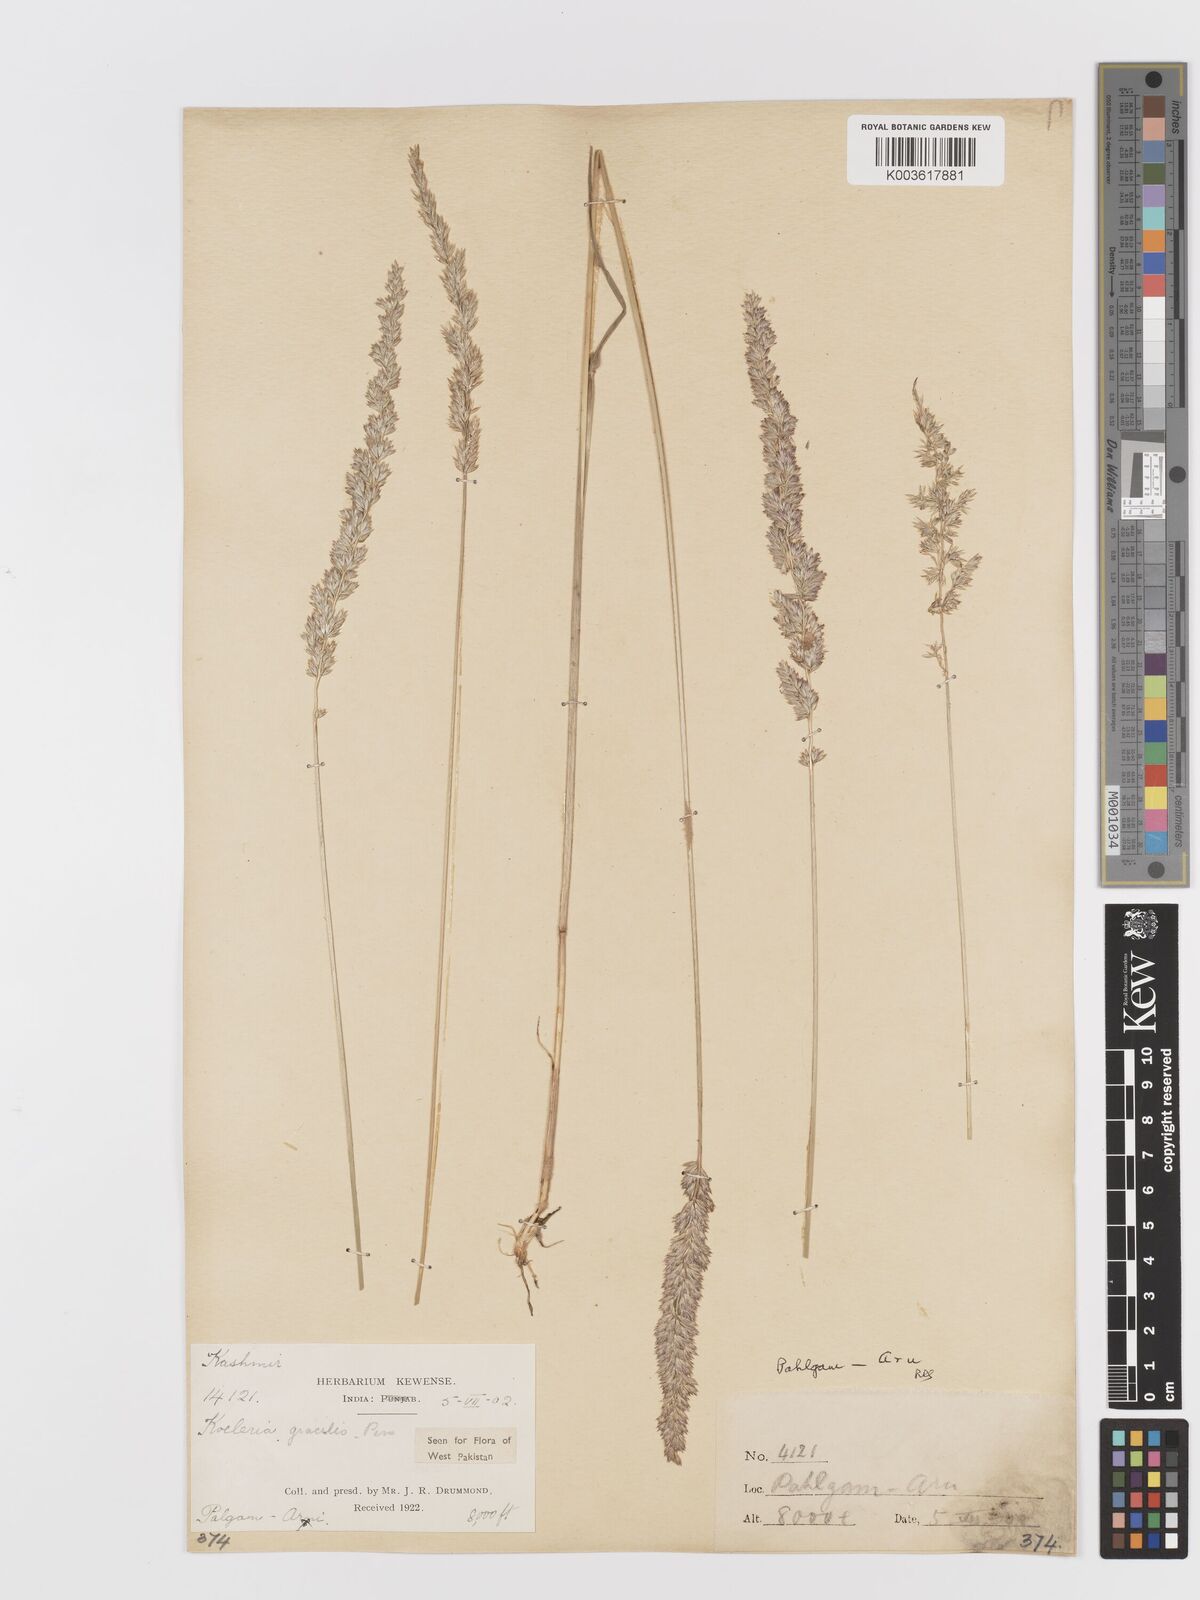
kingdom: Plantae
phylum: Tracheophyta
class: Liliopsida
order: Poales
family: Poaceae
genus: Koeleria
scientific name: Koeleria
